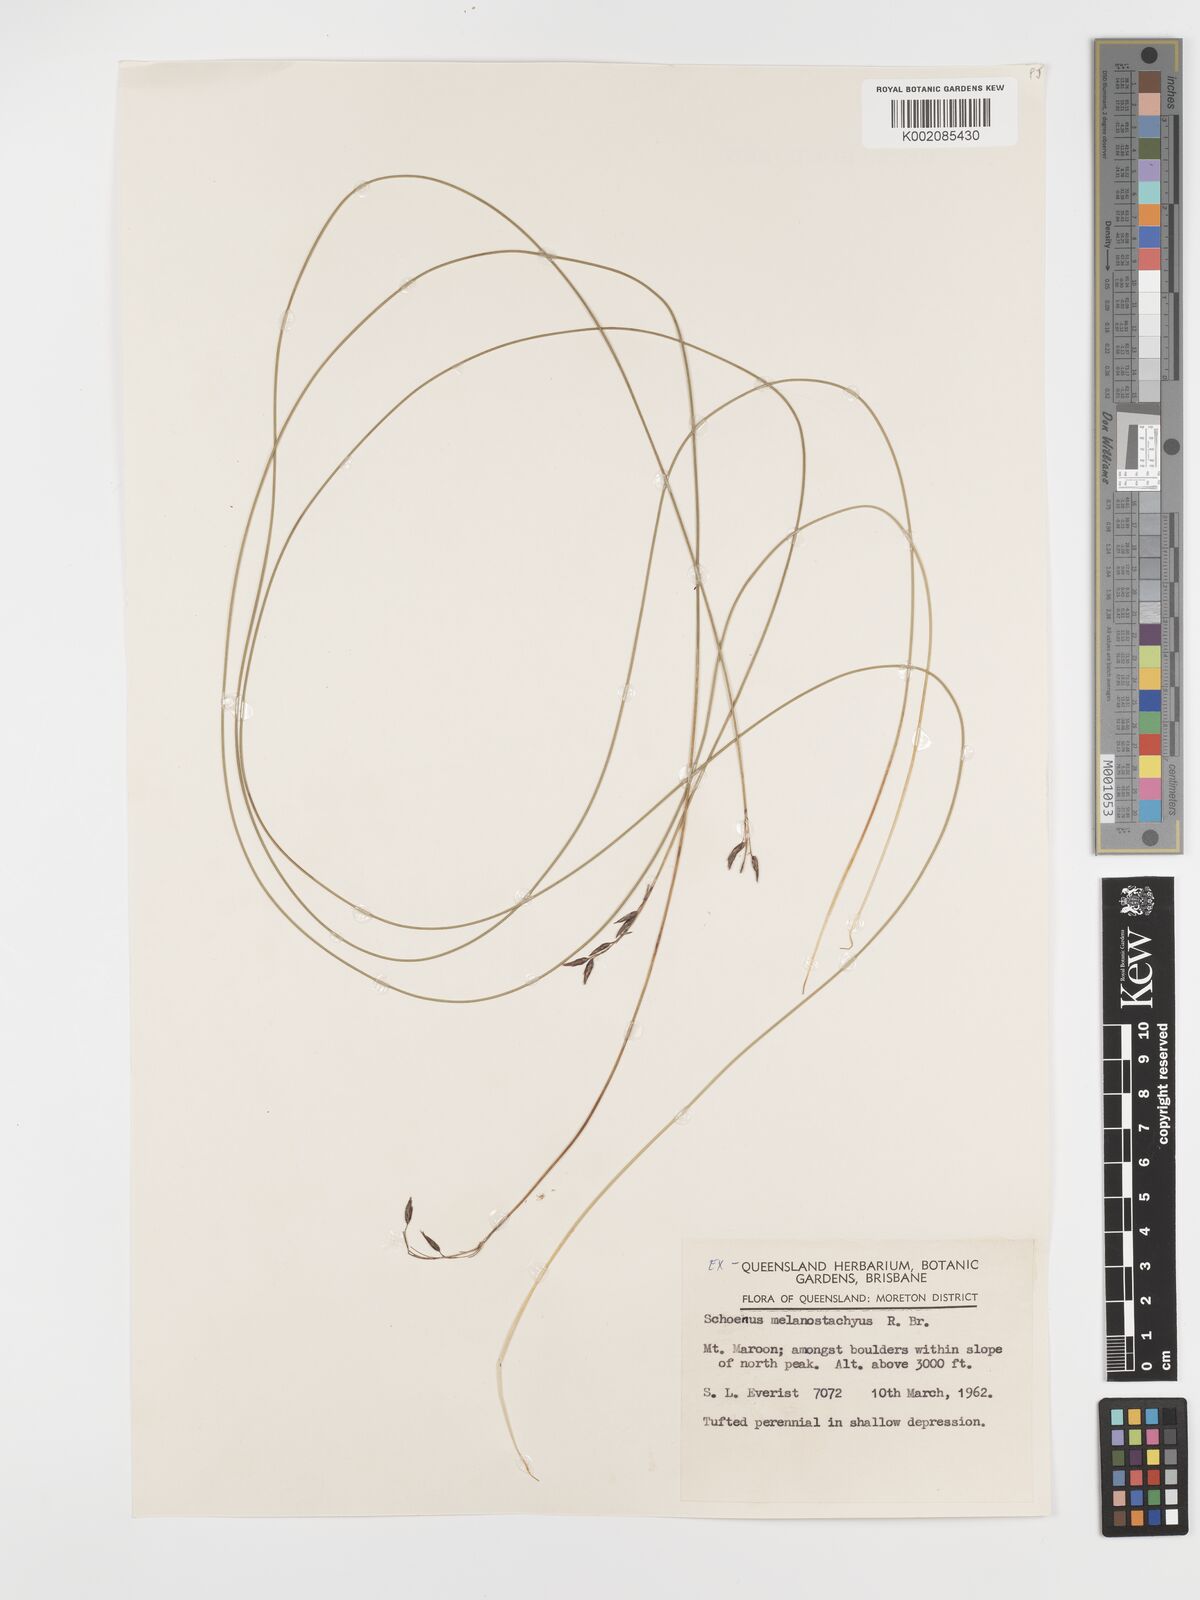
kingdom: Plantae
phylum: Tracheophyta
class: Liliopsida
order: Poales
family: Cyperaceae
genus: Schoenus
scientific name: Schoenus melanostachys
